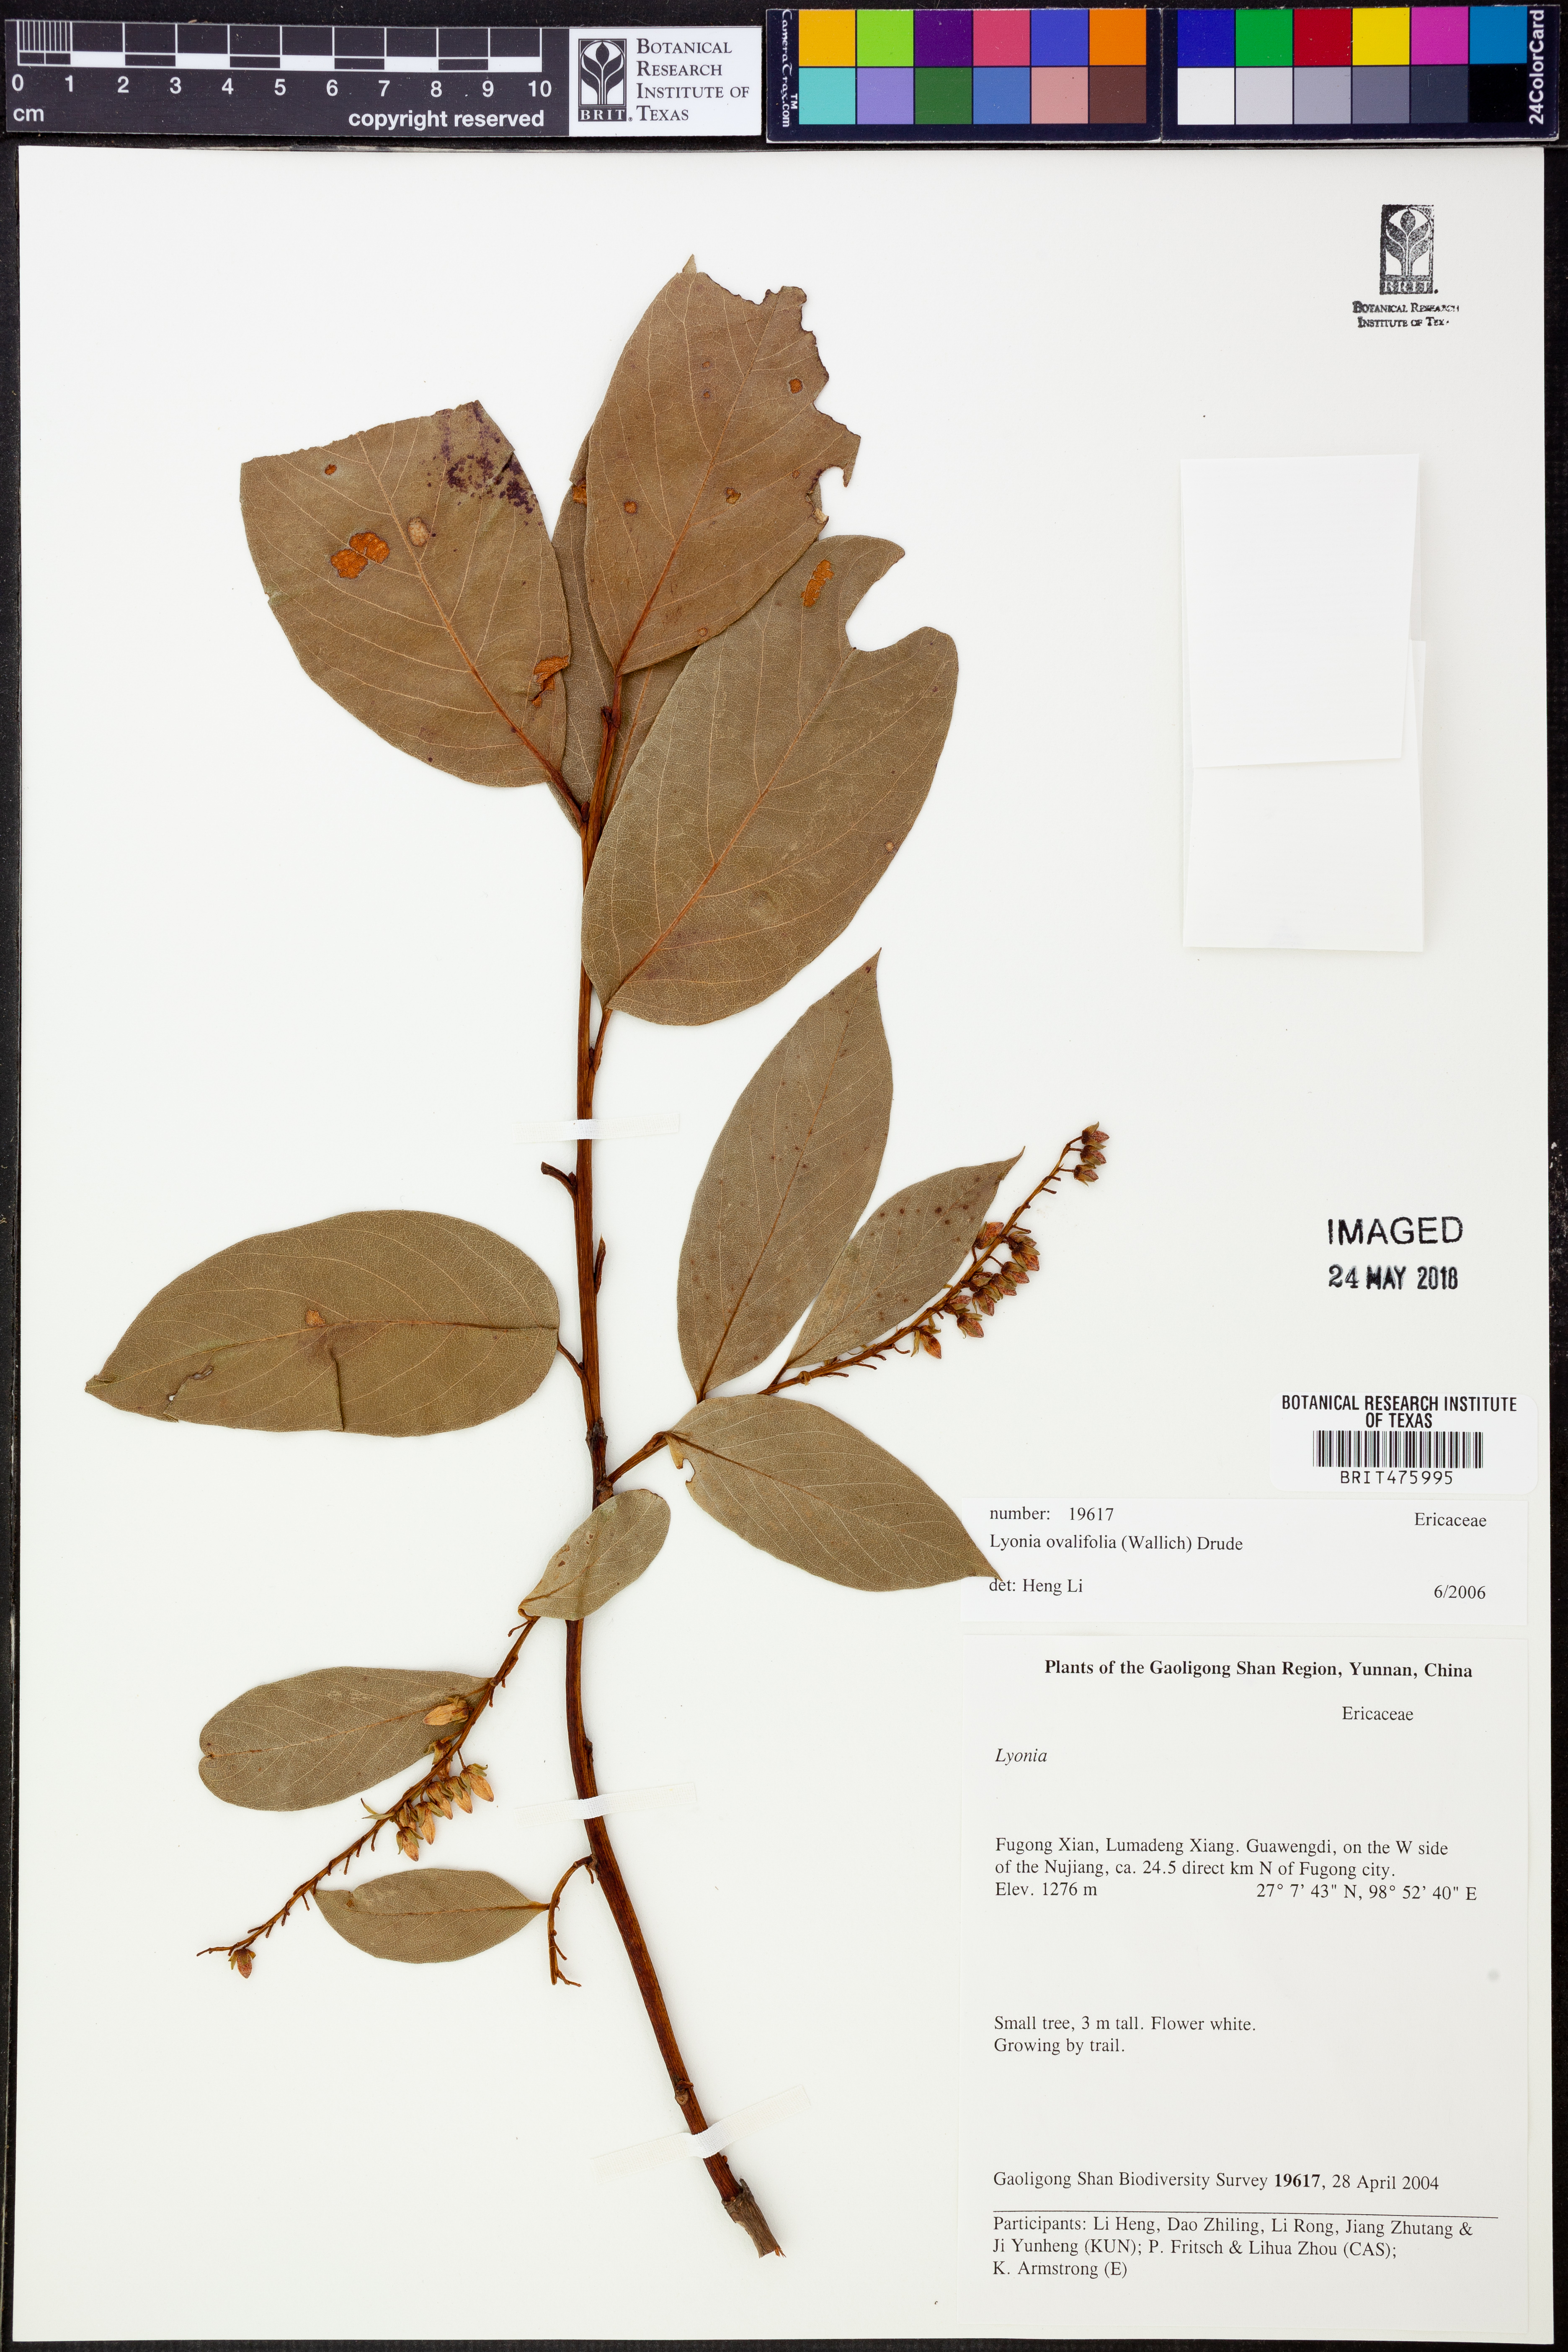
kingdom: Plantae
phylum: Tracheophyta
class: Magnoliopsida
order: Ericales
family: Ericaceae
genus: Lyonia
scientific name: Lyonia ovalifolia
